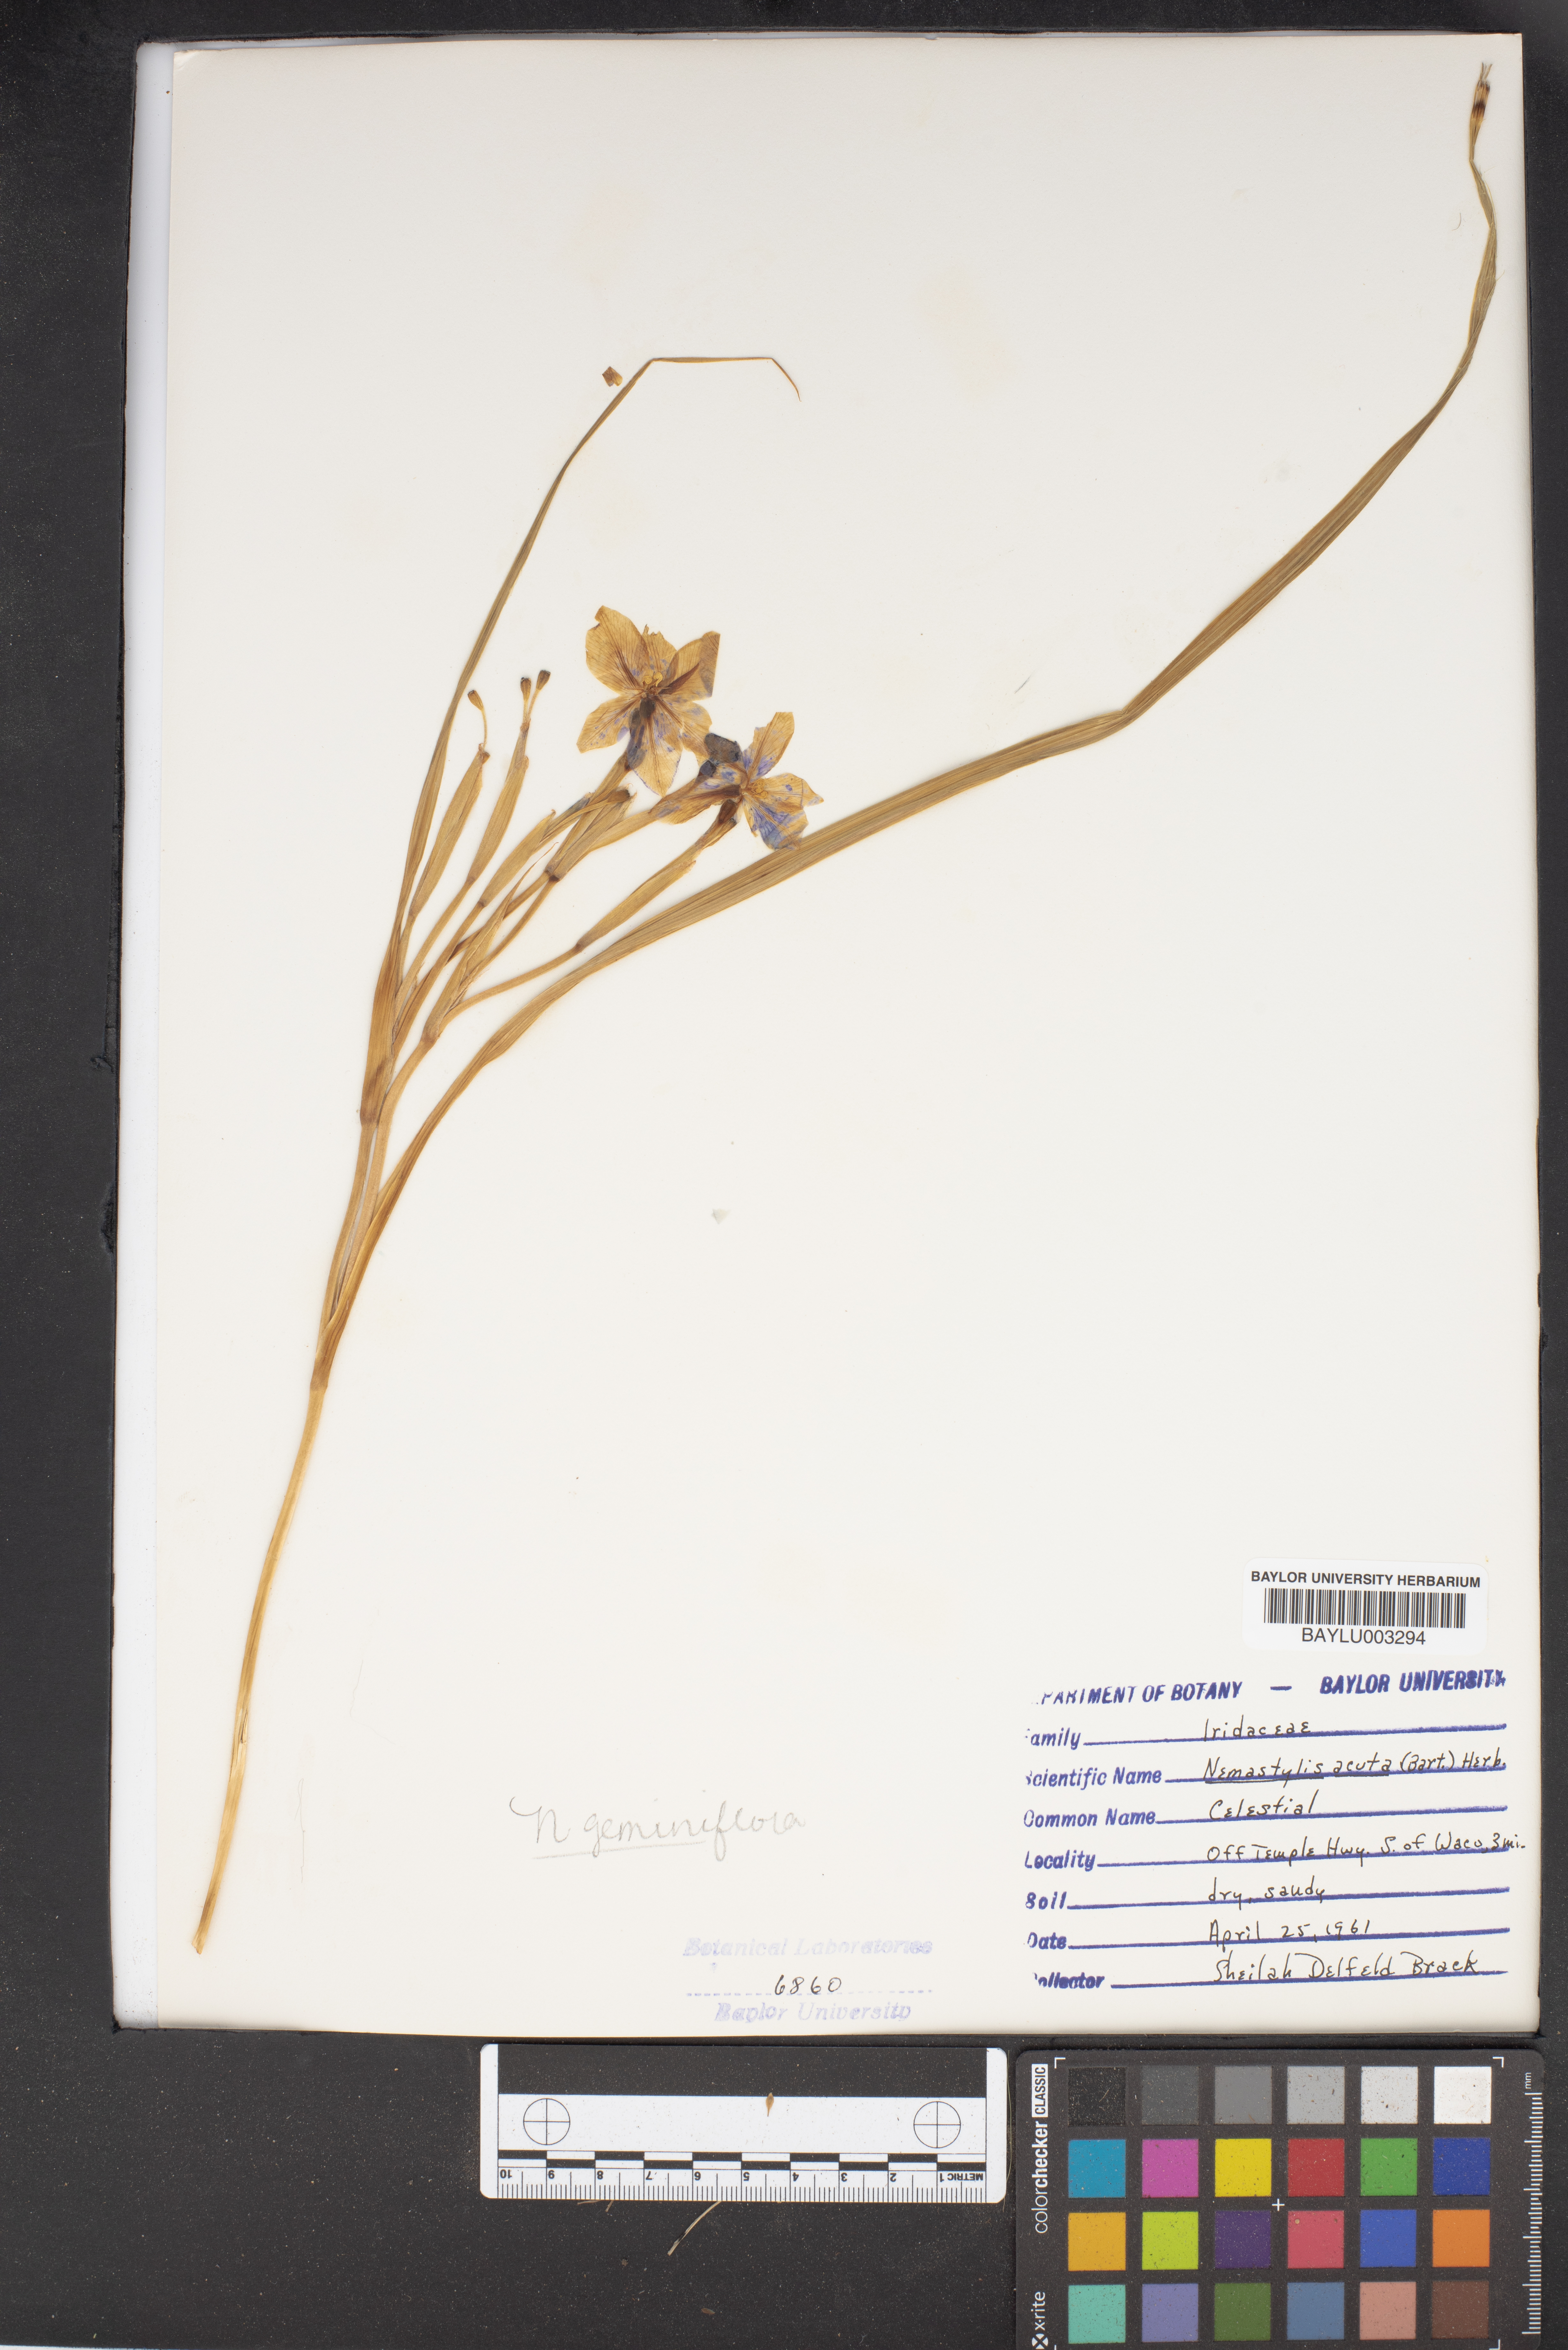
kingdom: Plantae
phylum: Tracheophyta
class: Liliopsida
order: Asparagales
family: Iridaceae
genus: Nemastylis
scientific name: Nemastylis geminiflora
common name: Prairie celestial
